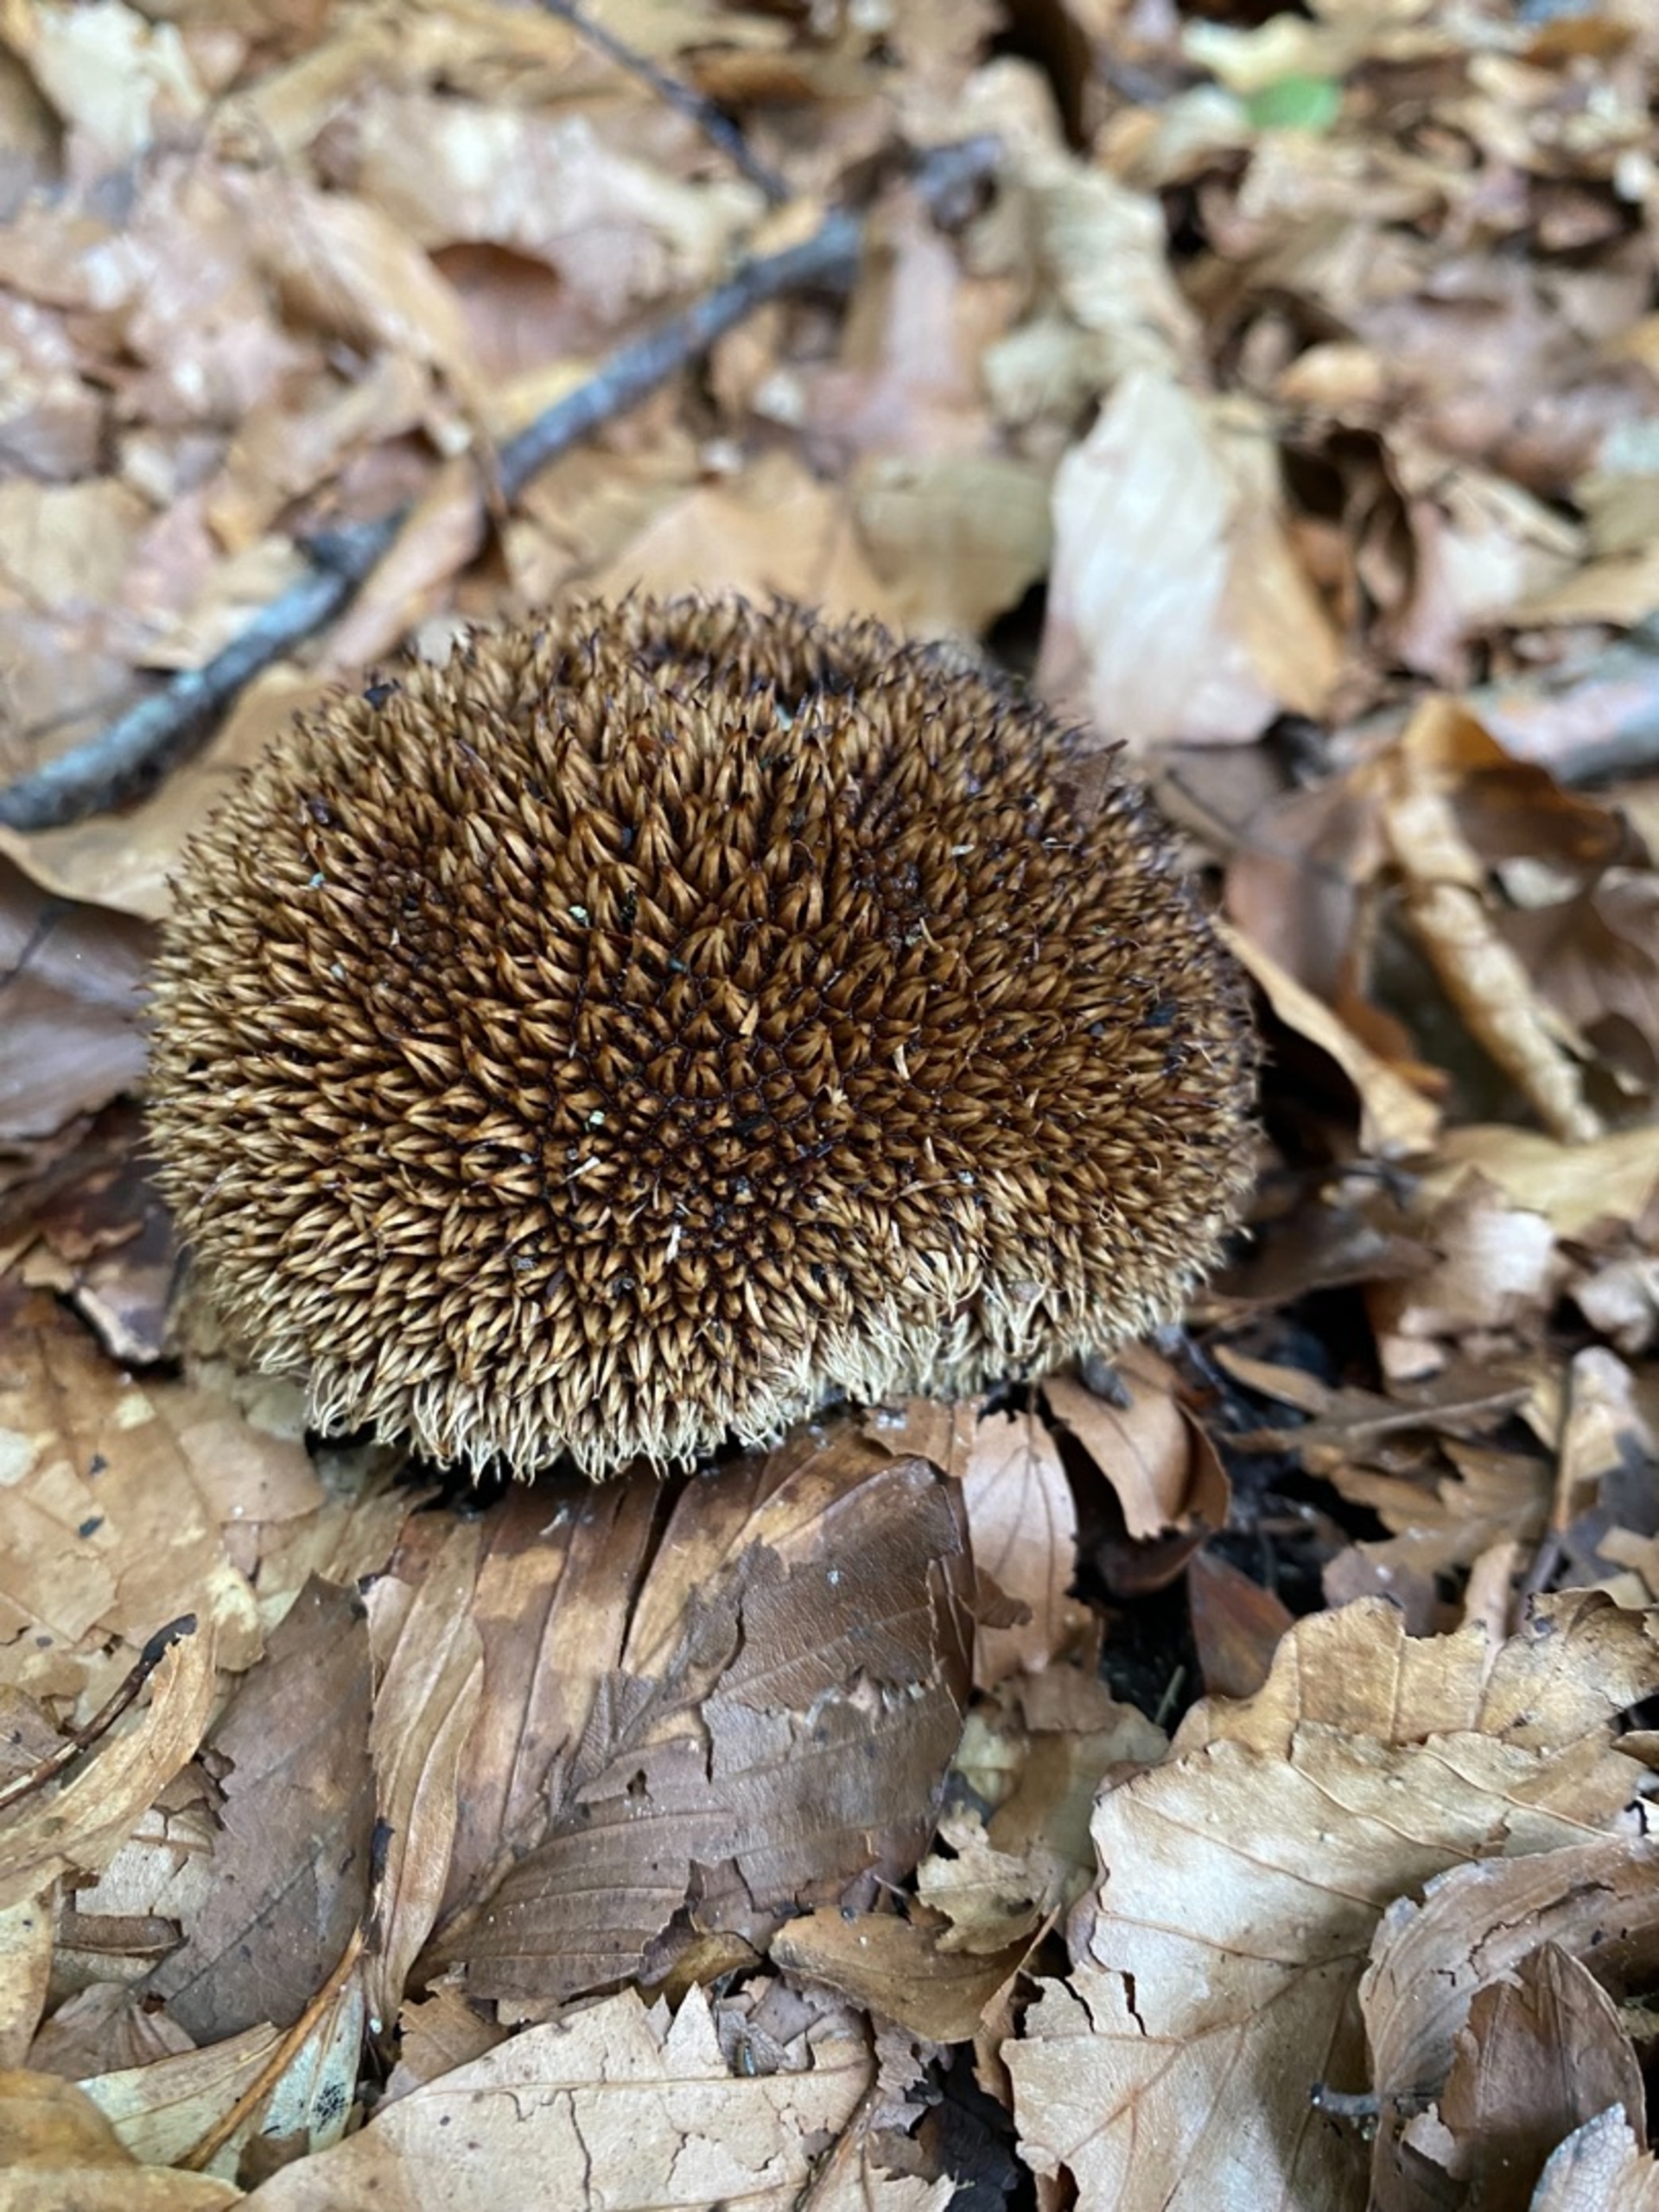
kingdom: Fungi
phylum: Basidiomycota
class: Agaricomycetes
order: Agaricales
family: Lycoperdaceae
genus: Lycoperdon
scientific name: Lycoperdon echinatum
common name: Pindsvine-støvbold
